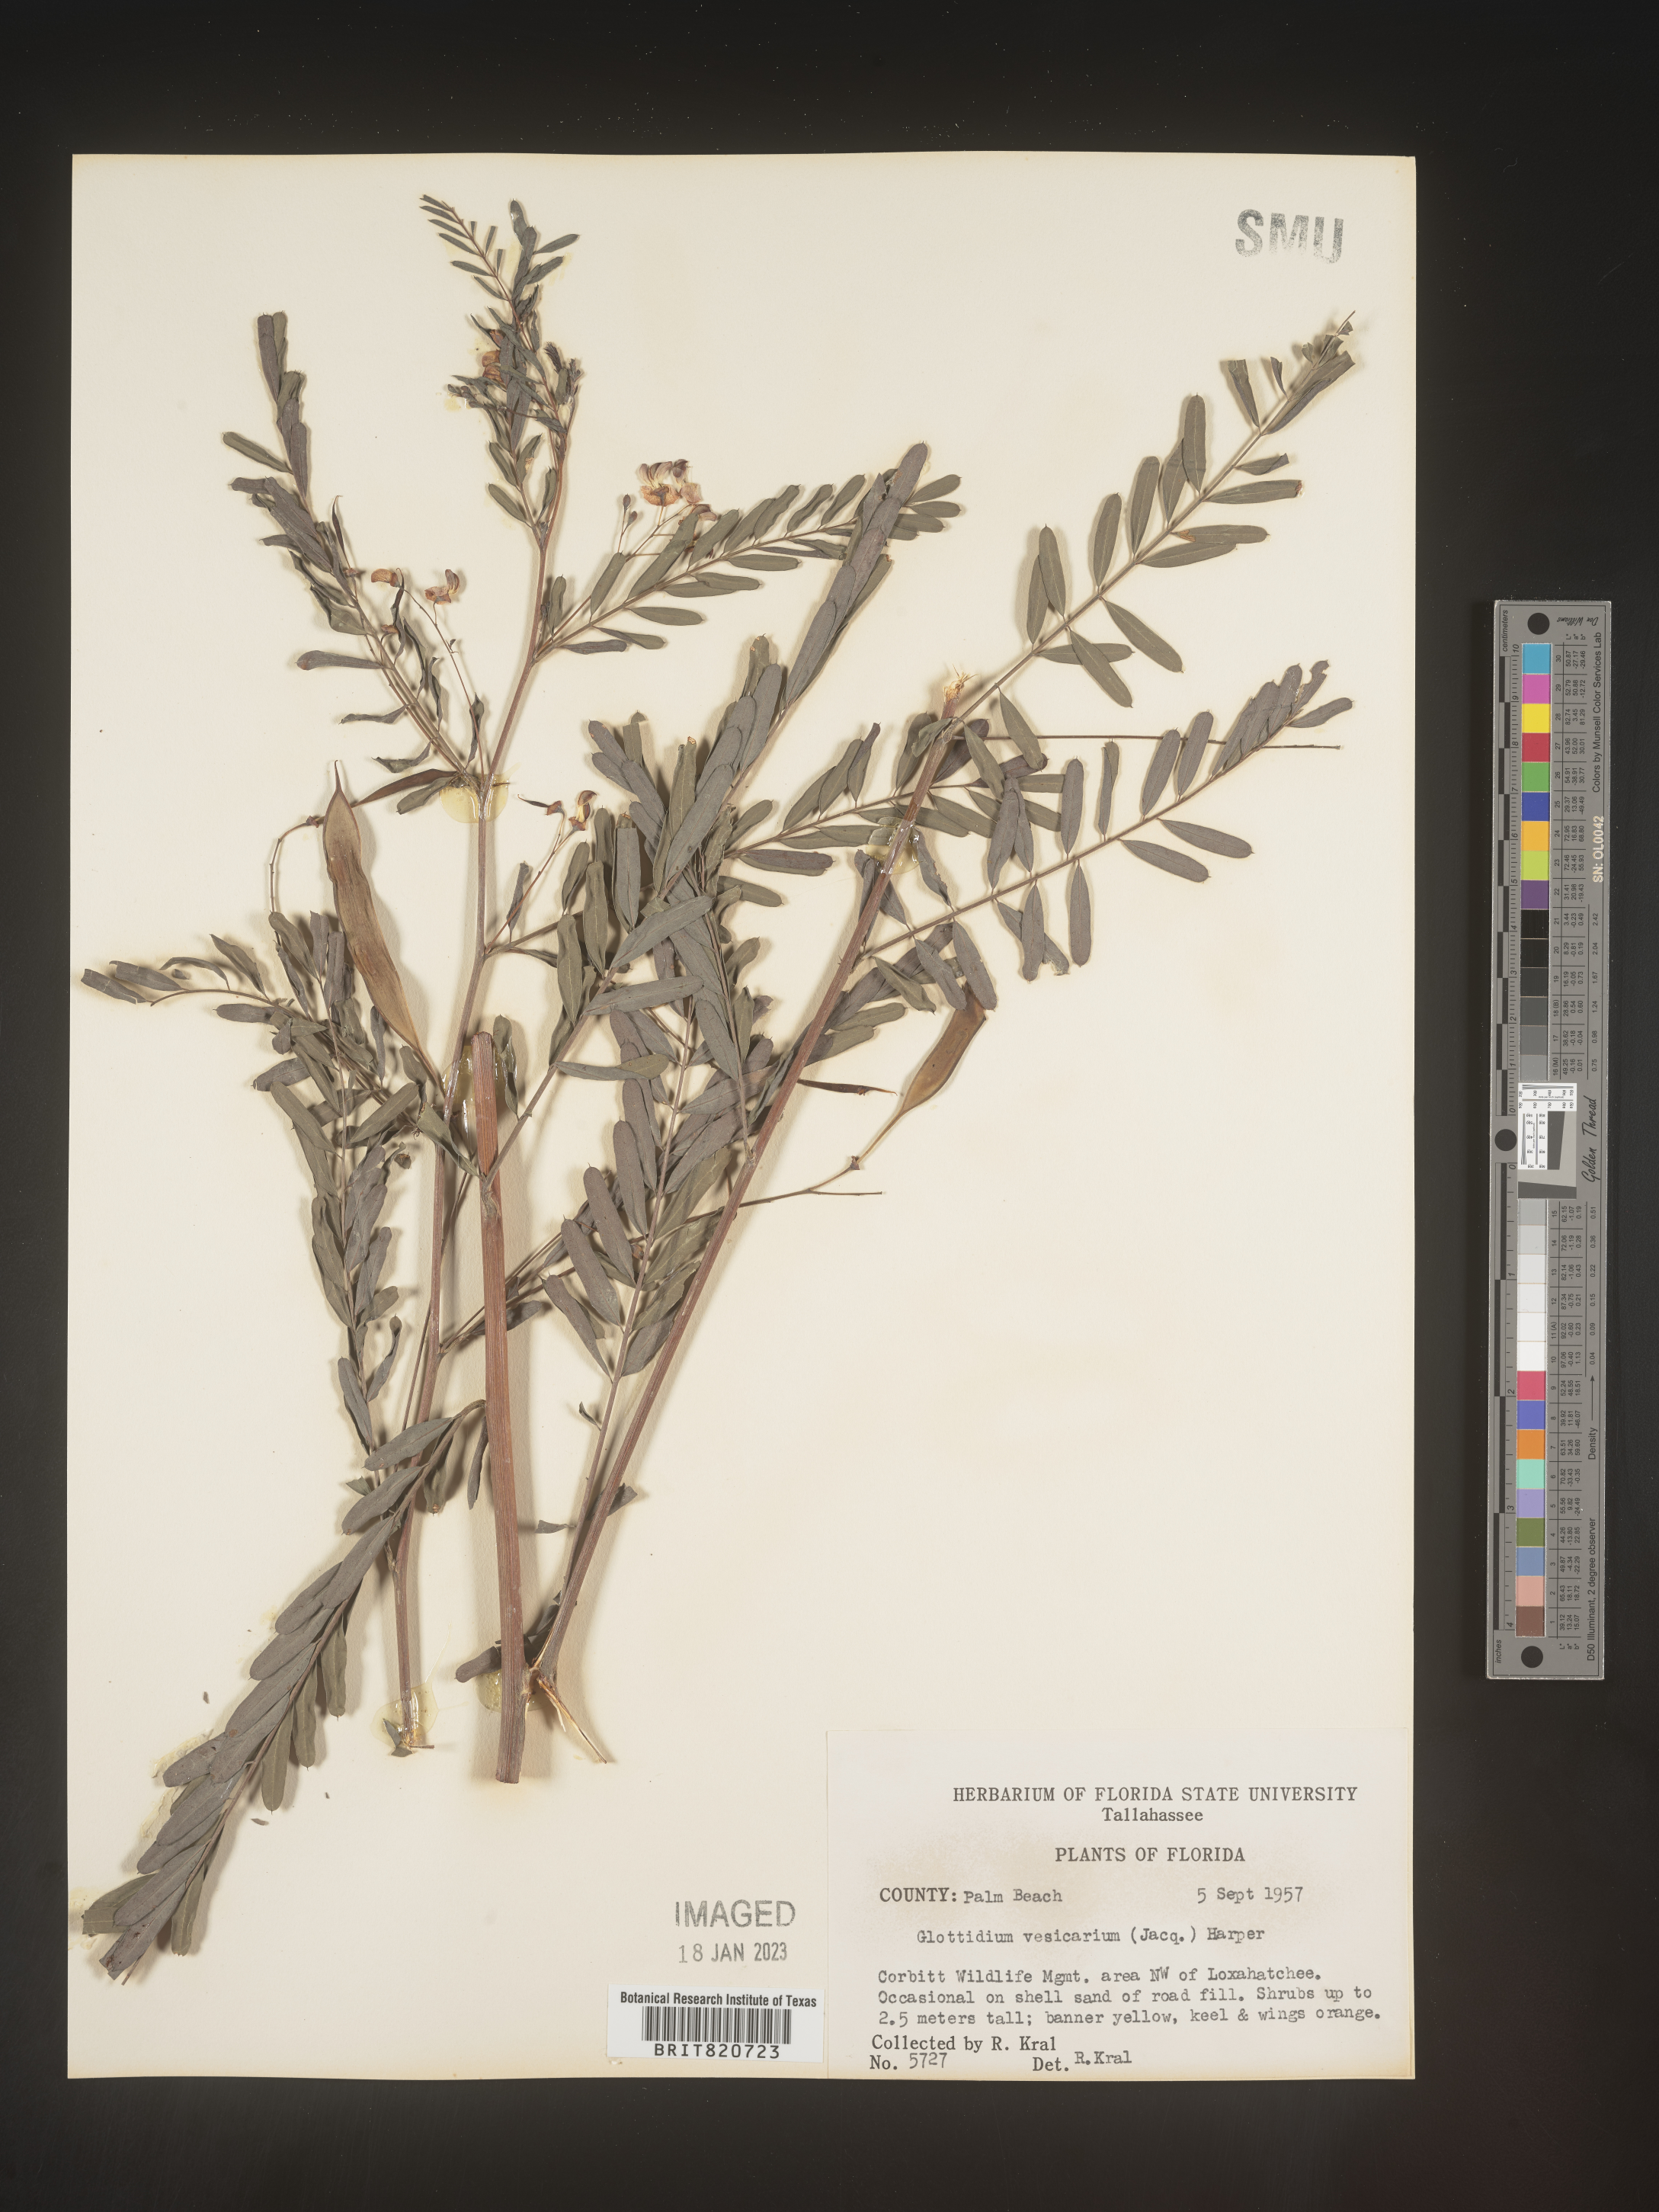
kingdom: Plantae
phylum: Tracheophyta
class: Magnoliopsida
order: Fabales
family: Fabaceae
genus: Sesbania
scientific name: Sesbania vesicaria
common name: Bagpod
